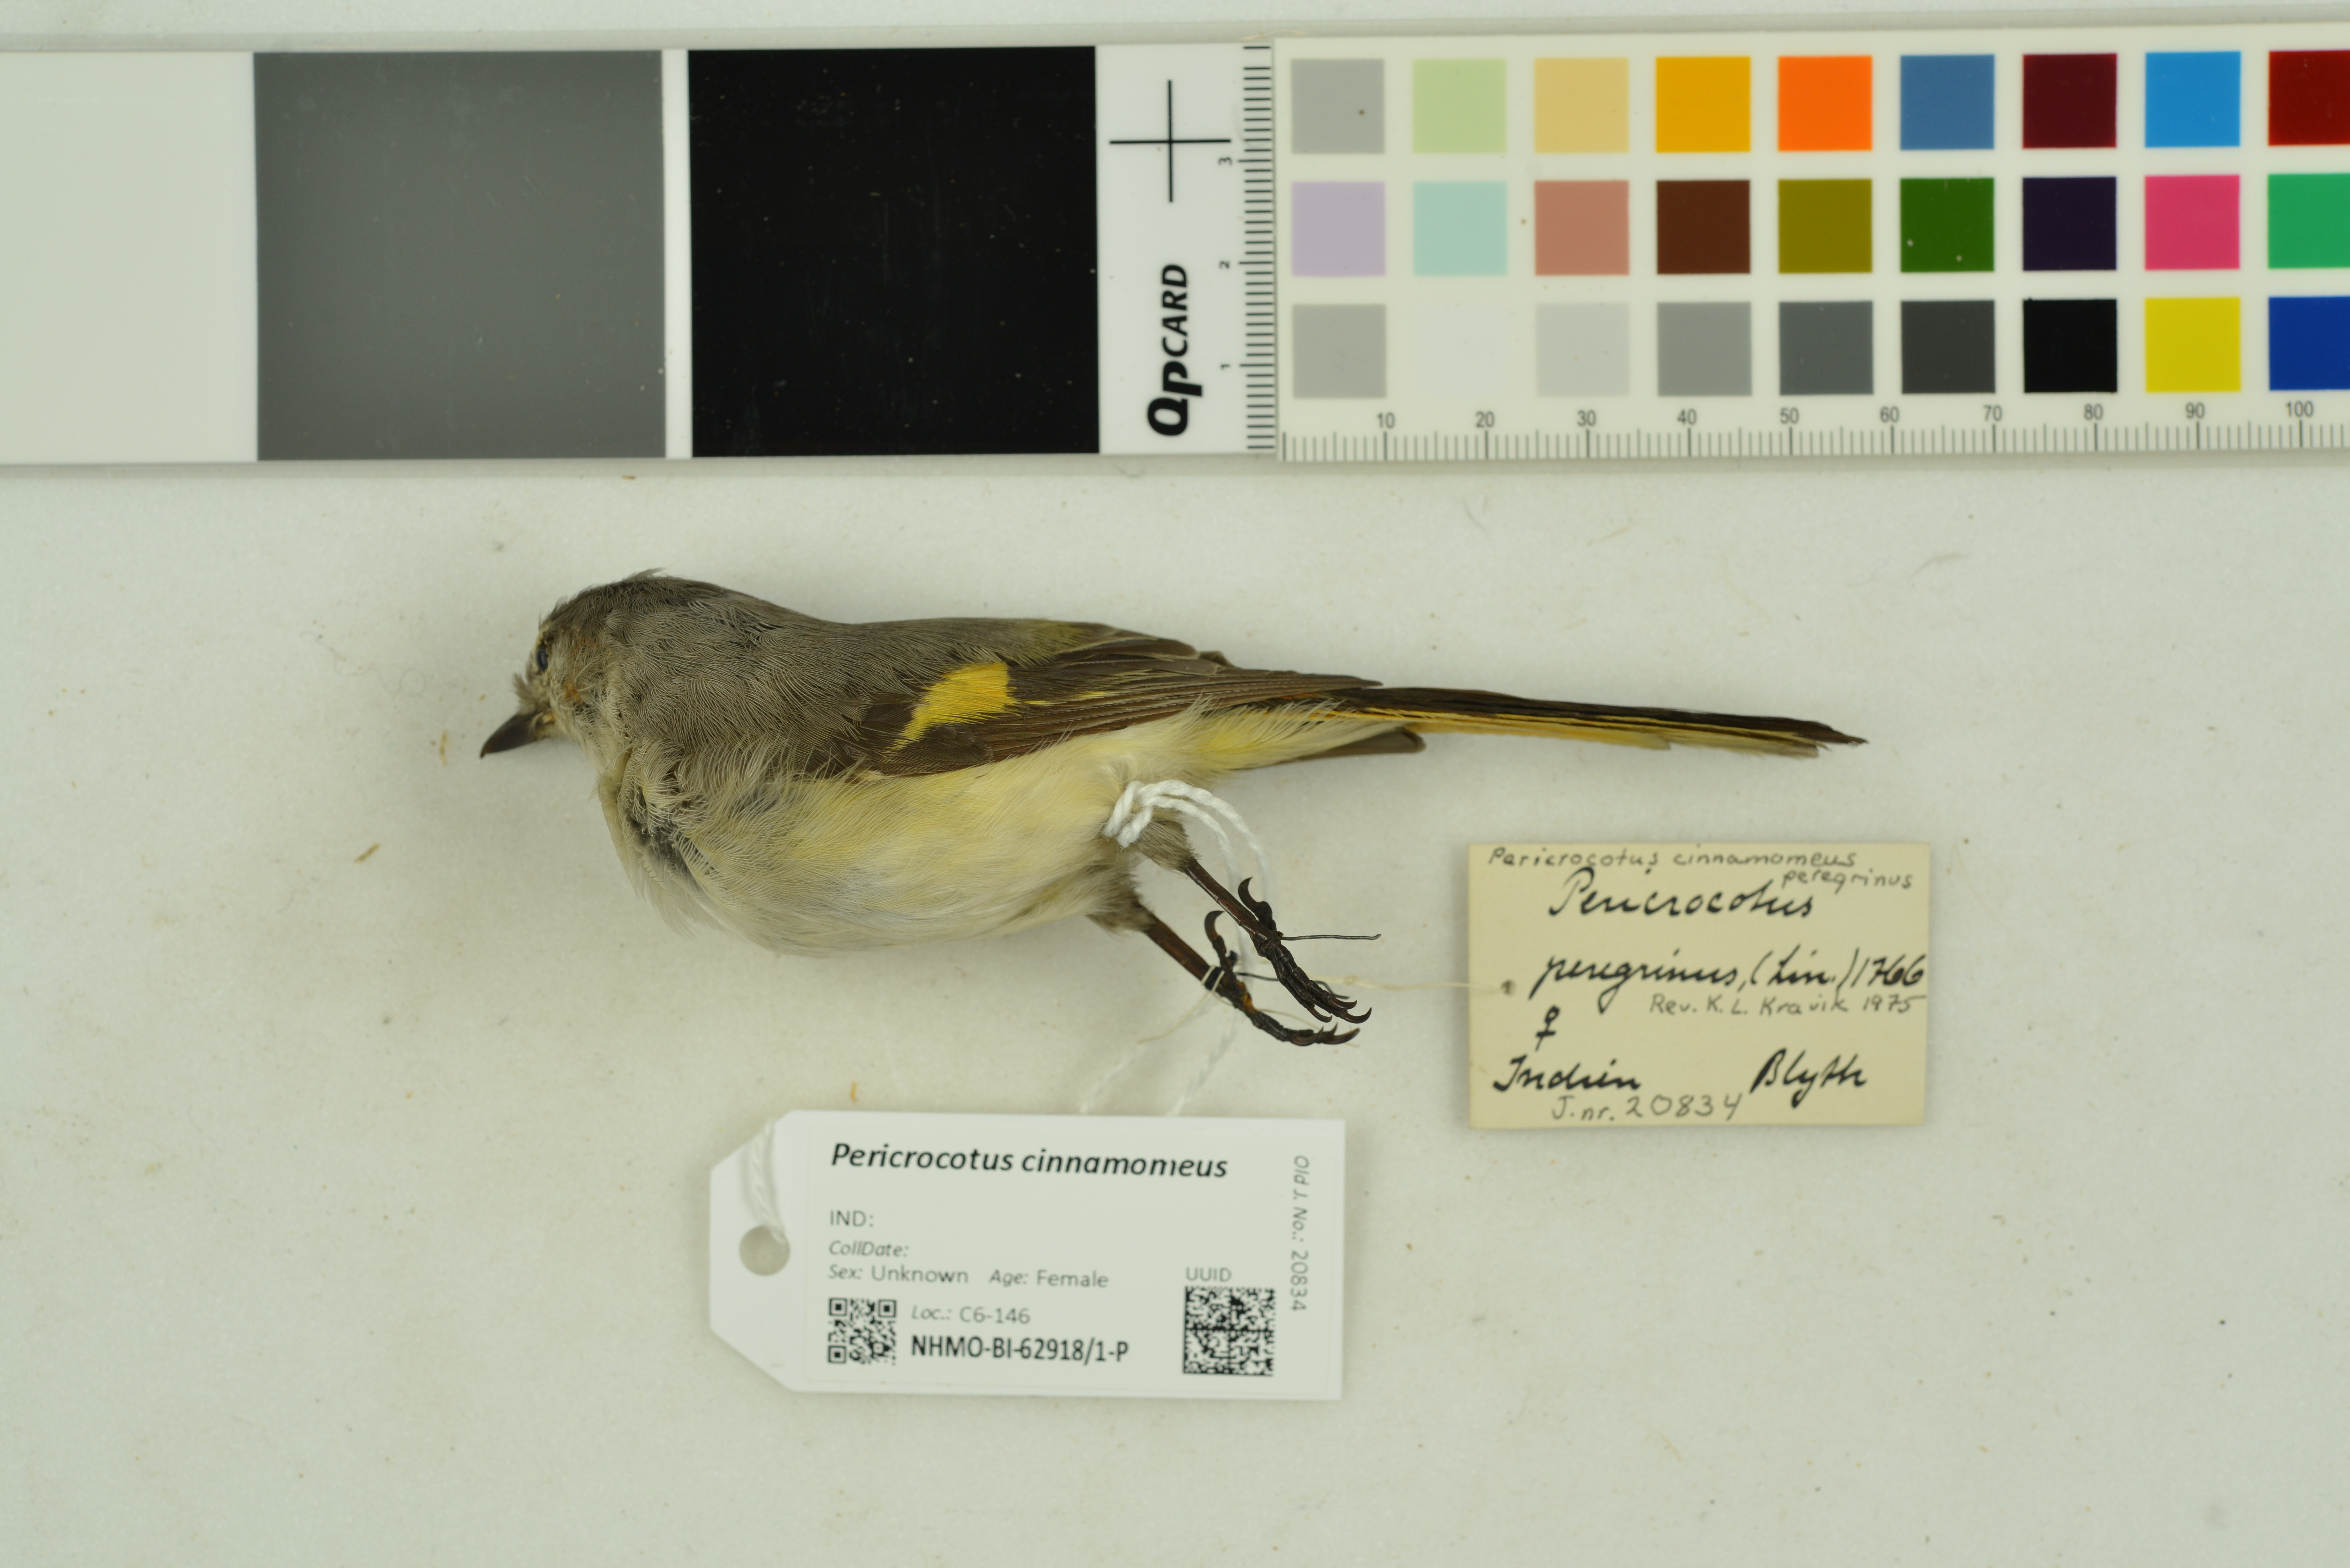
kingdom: Animalia
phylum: Chordata
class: Aves
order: Passeriformes
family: Campephagidae
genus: Pericrocotus
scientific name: Pericrocotus cinnamomeus
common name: Small minivet
